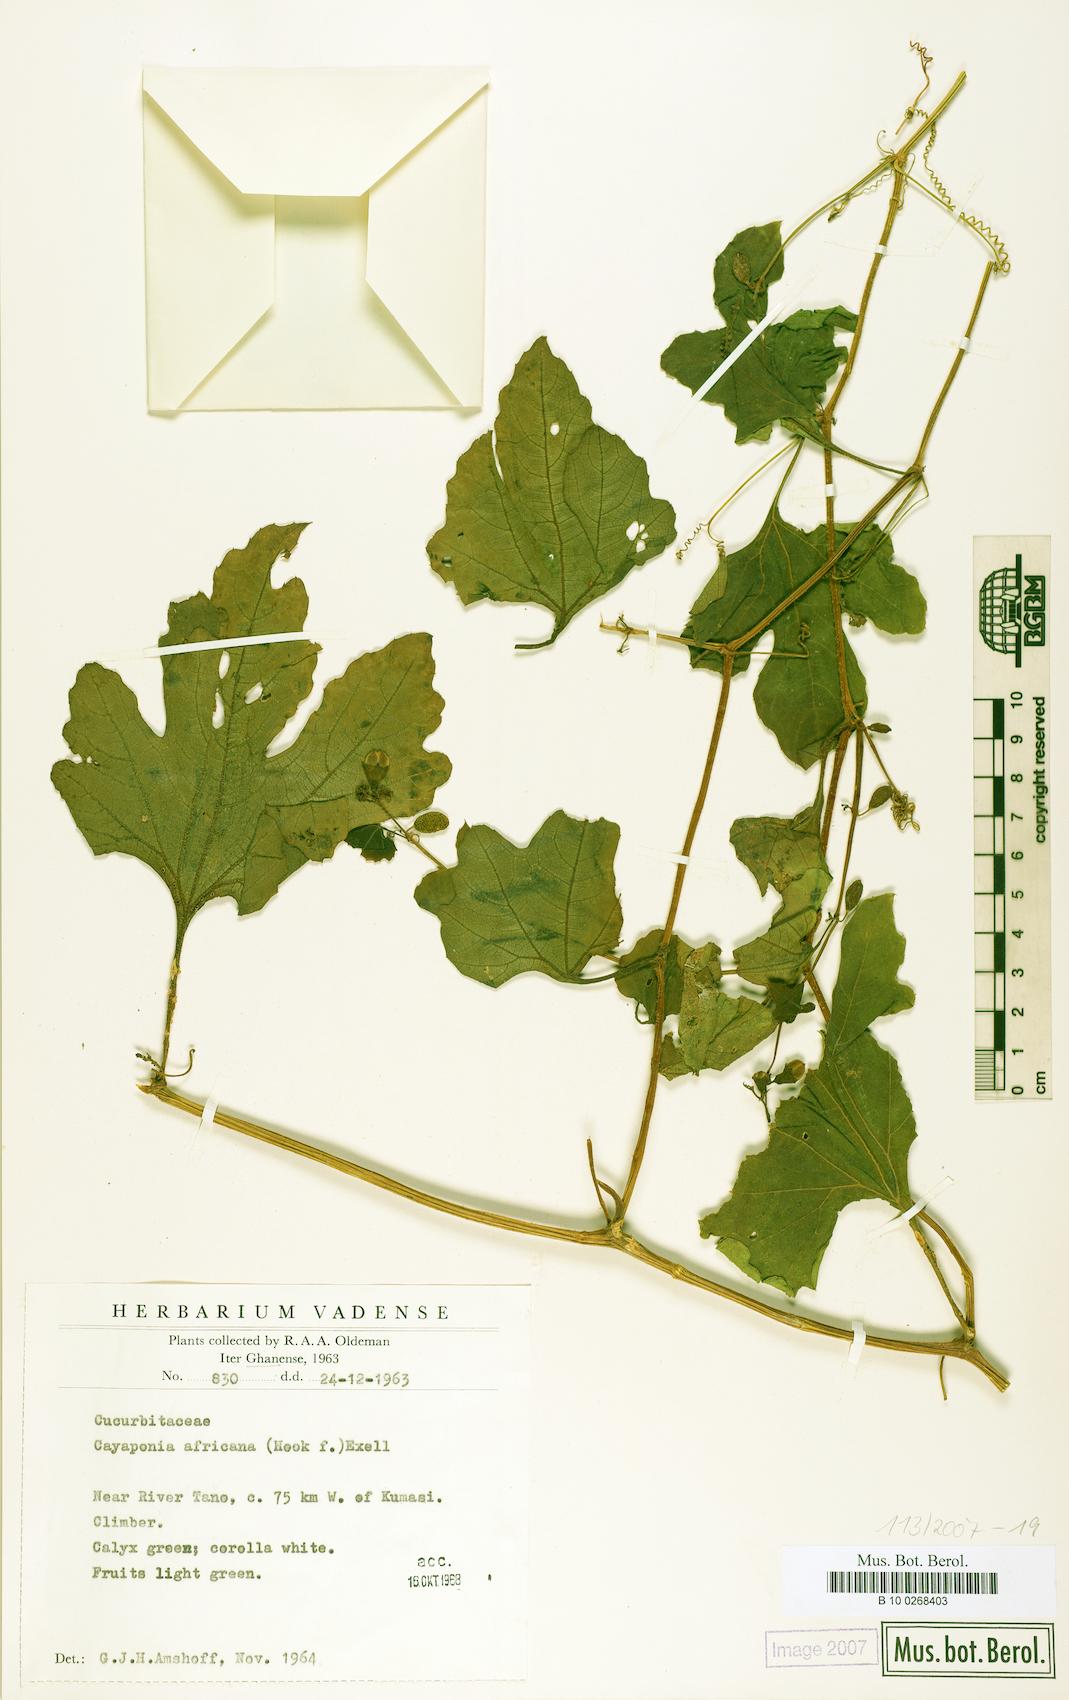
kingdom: Plantae
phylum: Tracheophyta
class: Magnoliopsida
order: Cucurbitales
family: Cucurbitaceae
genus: Cayaponia
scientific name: Cayaponia africana
